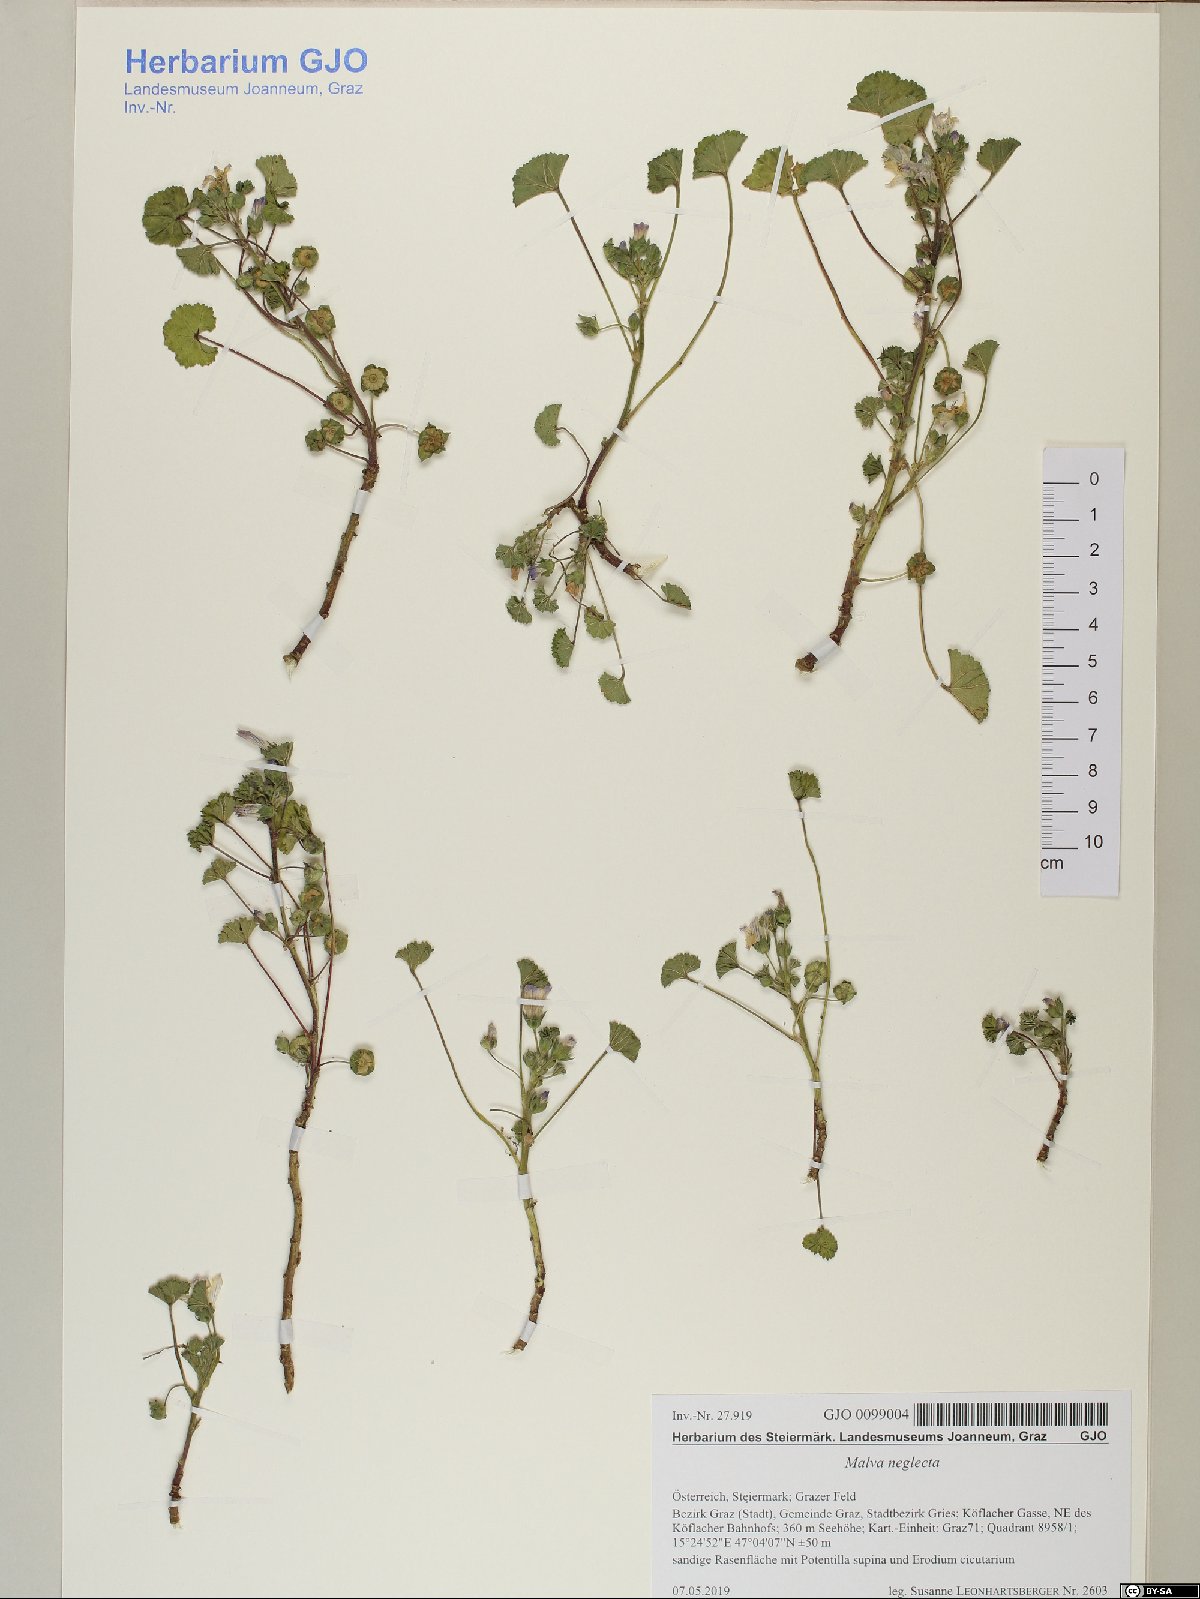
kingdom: Plantae
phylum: Tracheophyta
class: Magnoliopsida
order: Malvales
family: Malvaceae
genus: Malva
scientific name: Malva neglecta
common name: Common mallow
